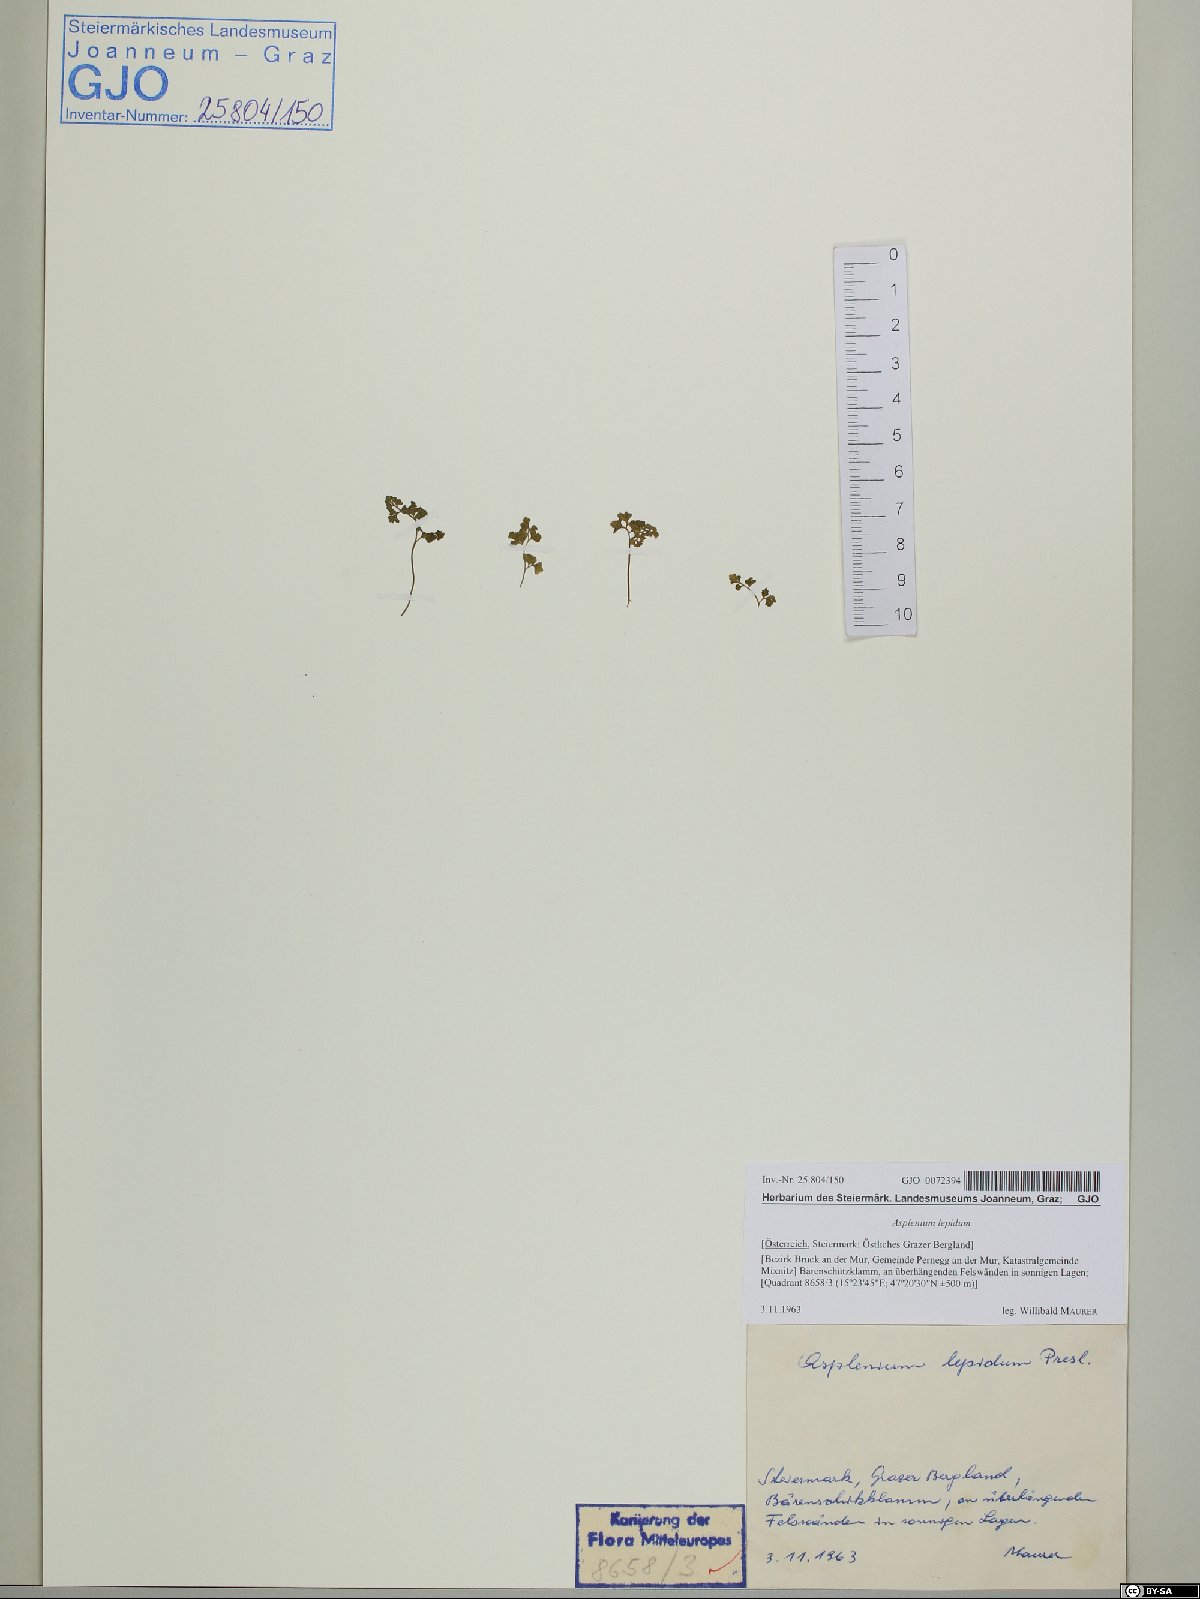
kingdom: Plantae
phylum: Tracheophyta
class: Polypodiopsida
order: Polypodiales
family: Aspleniaceae
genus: Asplenium
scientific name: Asplenium lepidum
